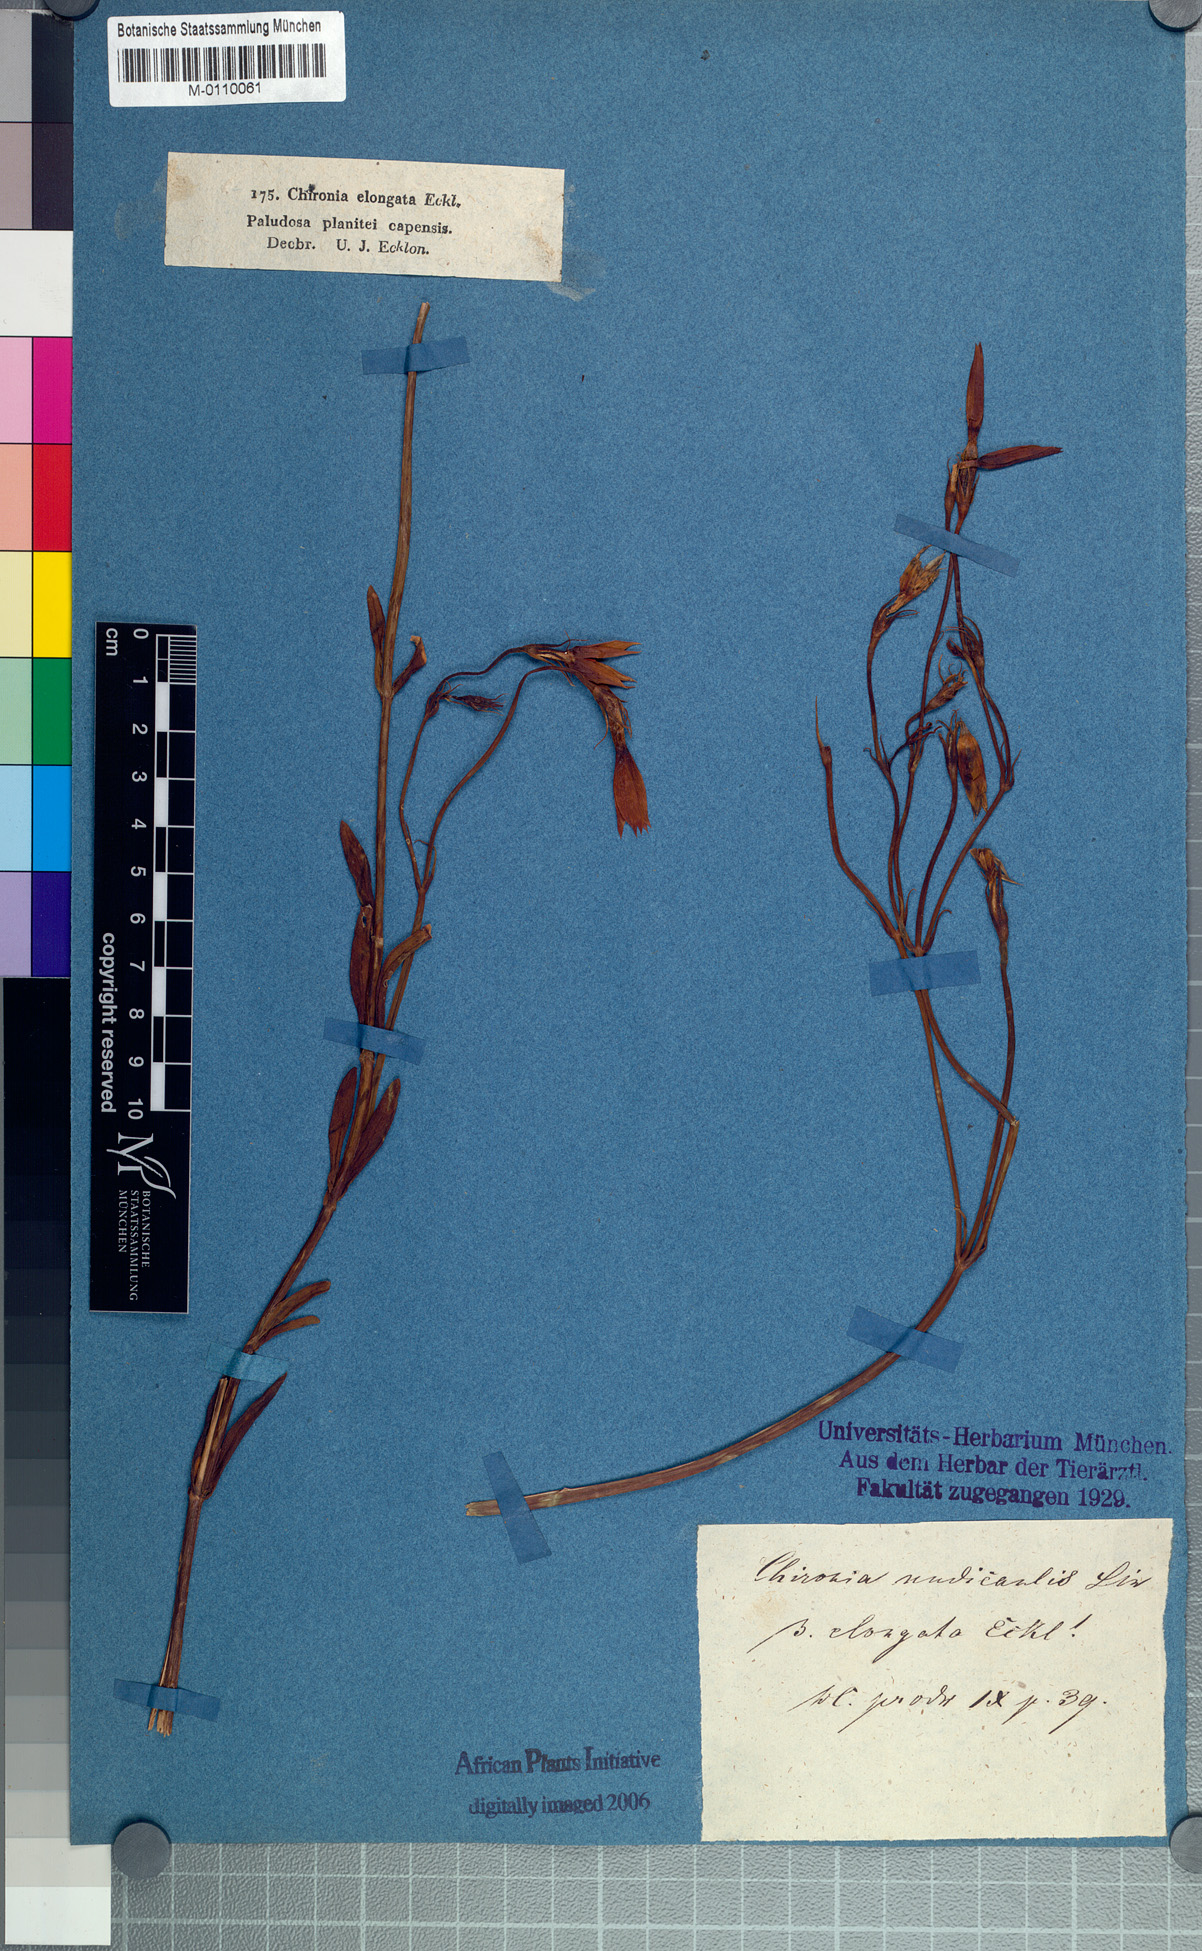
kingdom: Plantae
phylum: Tracheophyta
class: Magnoliopsida
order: Gentianales
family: Gentianaceae
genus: Chironia
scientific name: Chironia jasminoides
